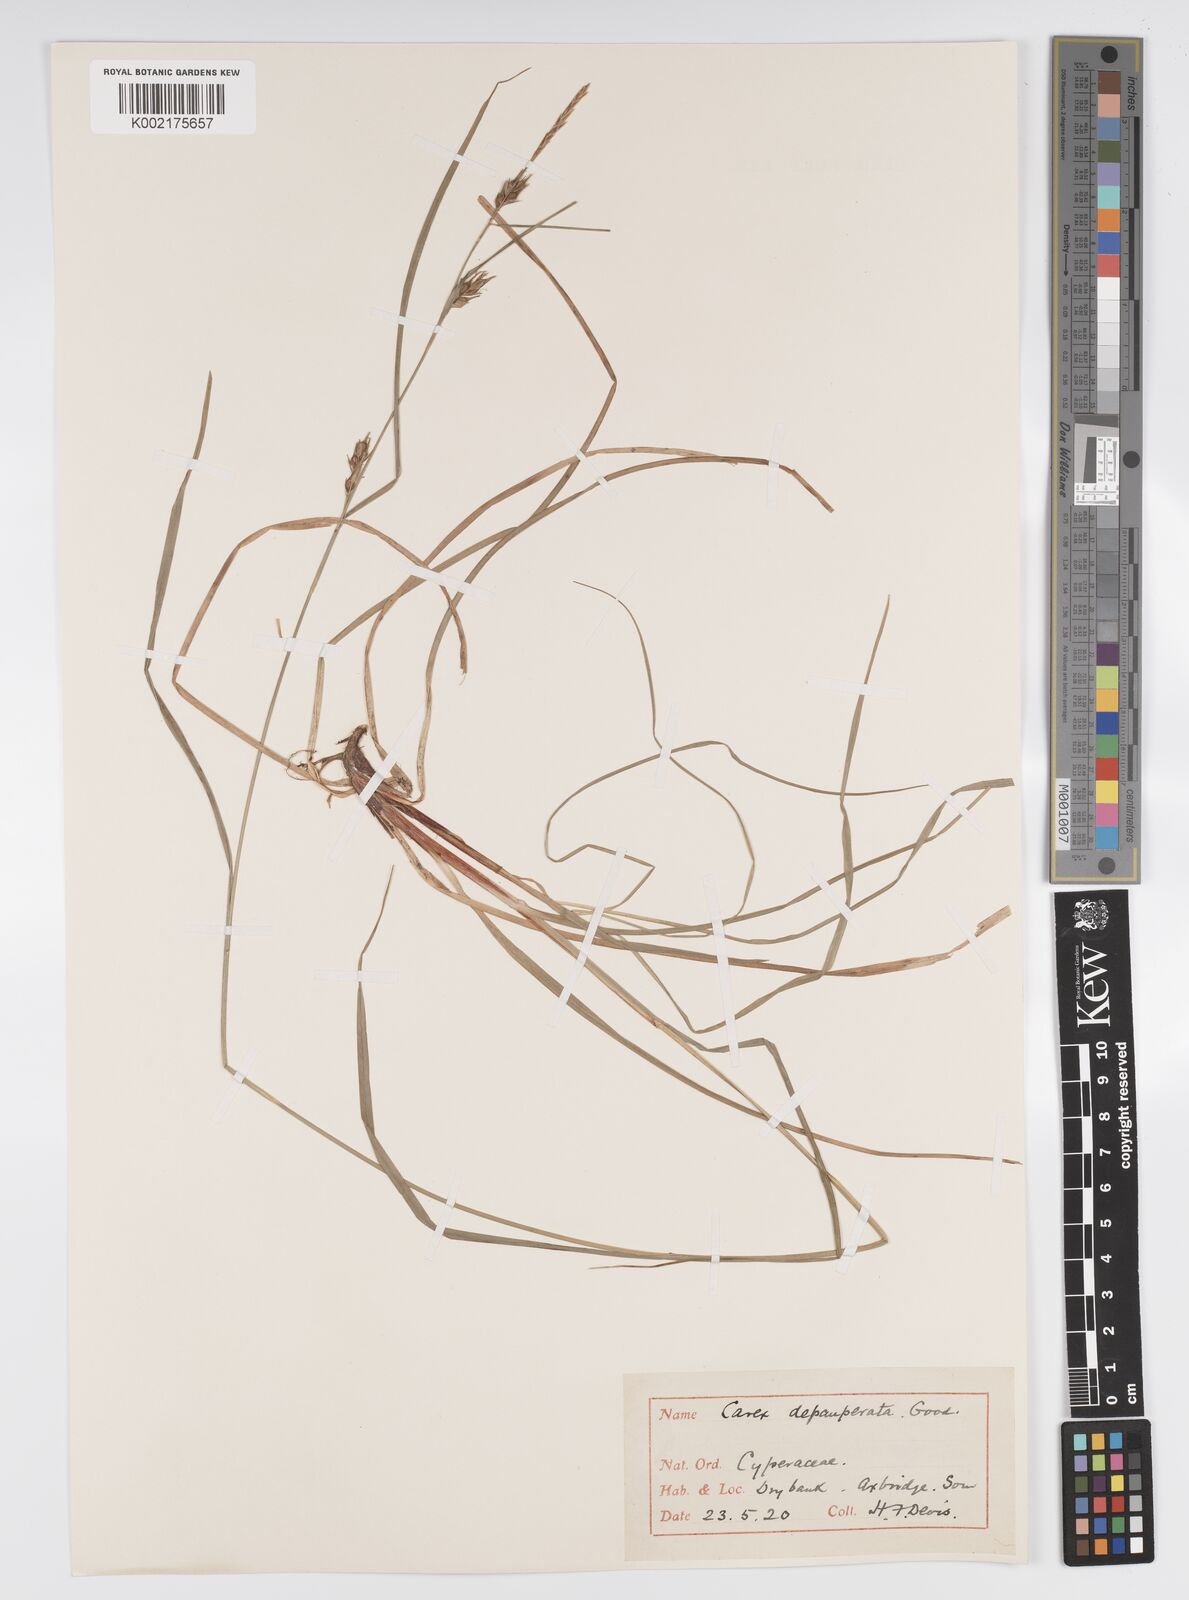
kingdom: Plantae
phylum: Tracheophyta
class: Liliopsida
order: Poales
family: Cyperaceae
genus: Carex
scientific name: Carex depauperata
